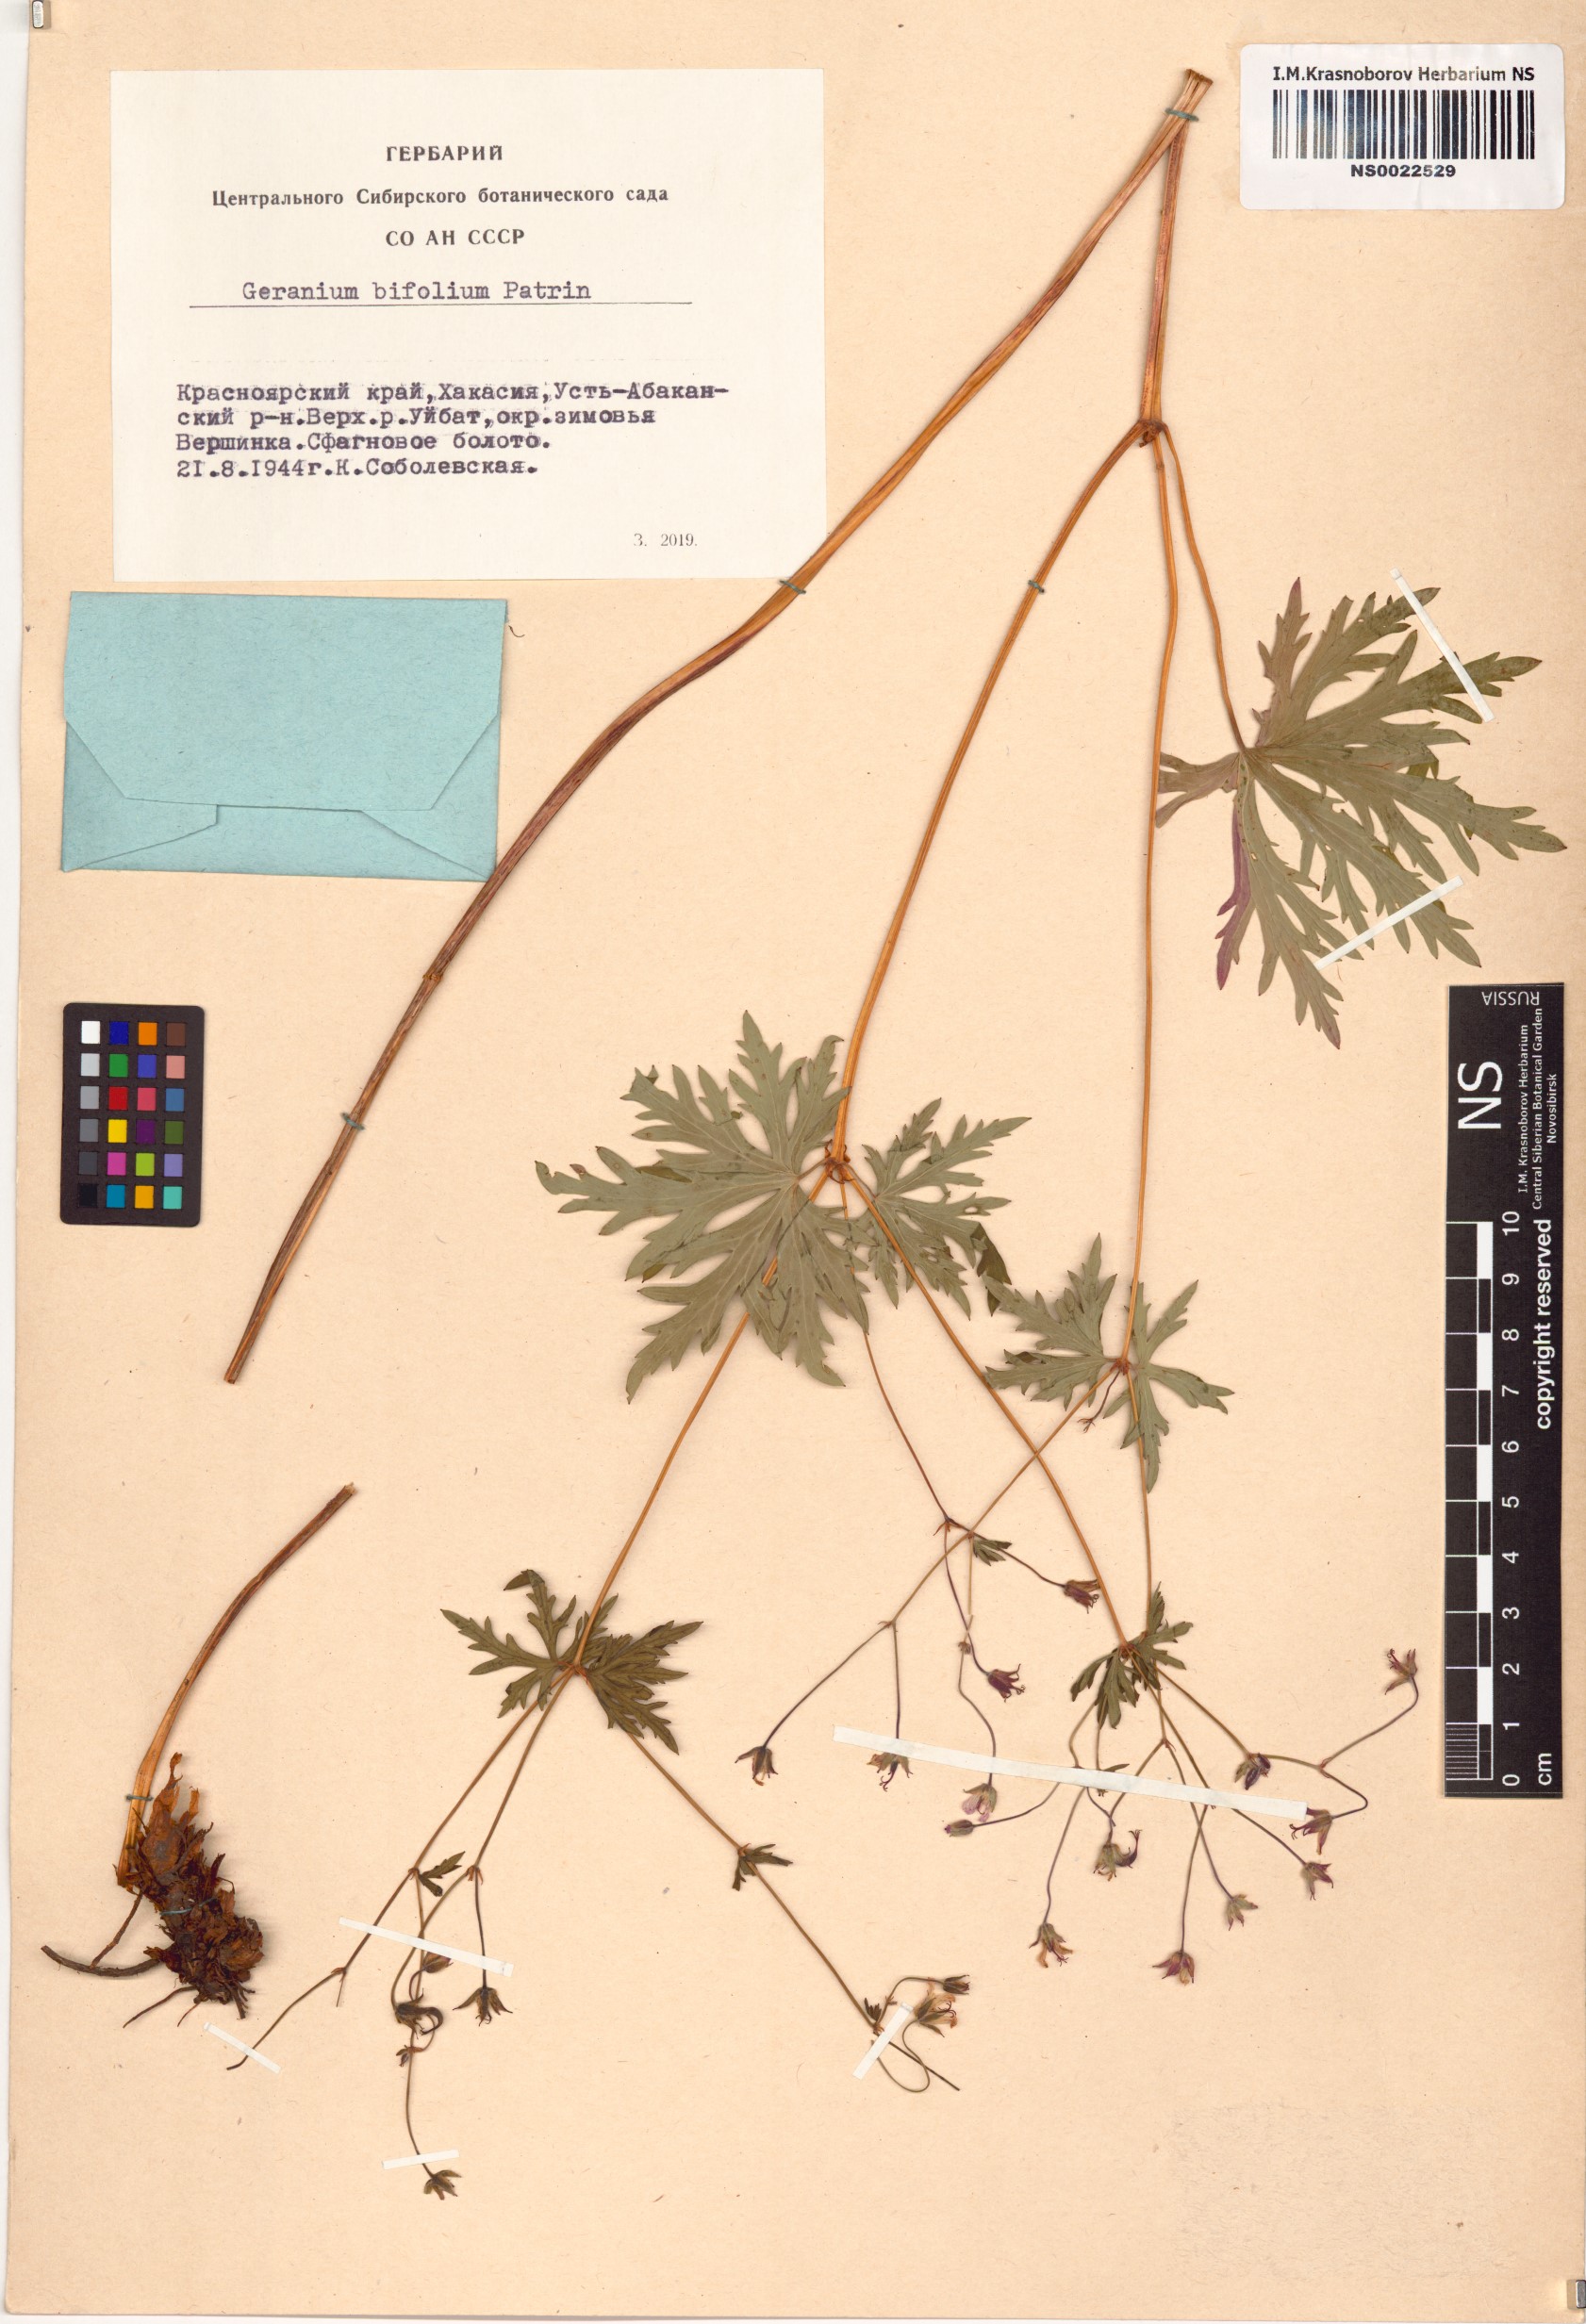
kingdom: Plantae
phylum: Tracheophyta
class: Magnoliopsida
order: Geraniales
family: Geraniaceae
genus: Geranium
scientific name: Geranium pseudosibiricum
